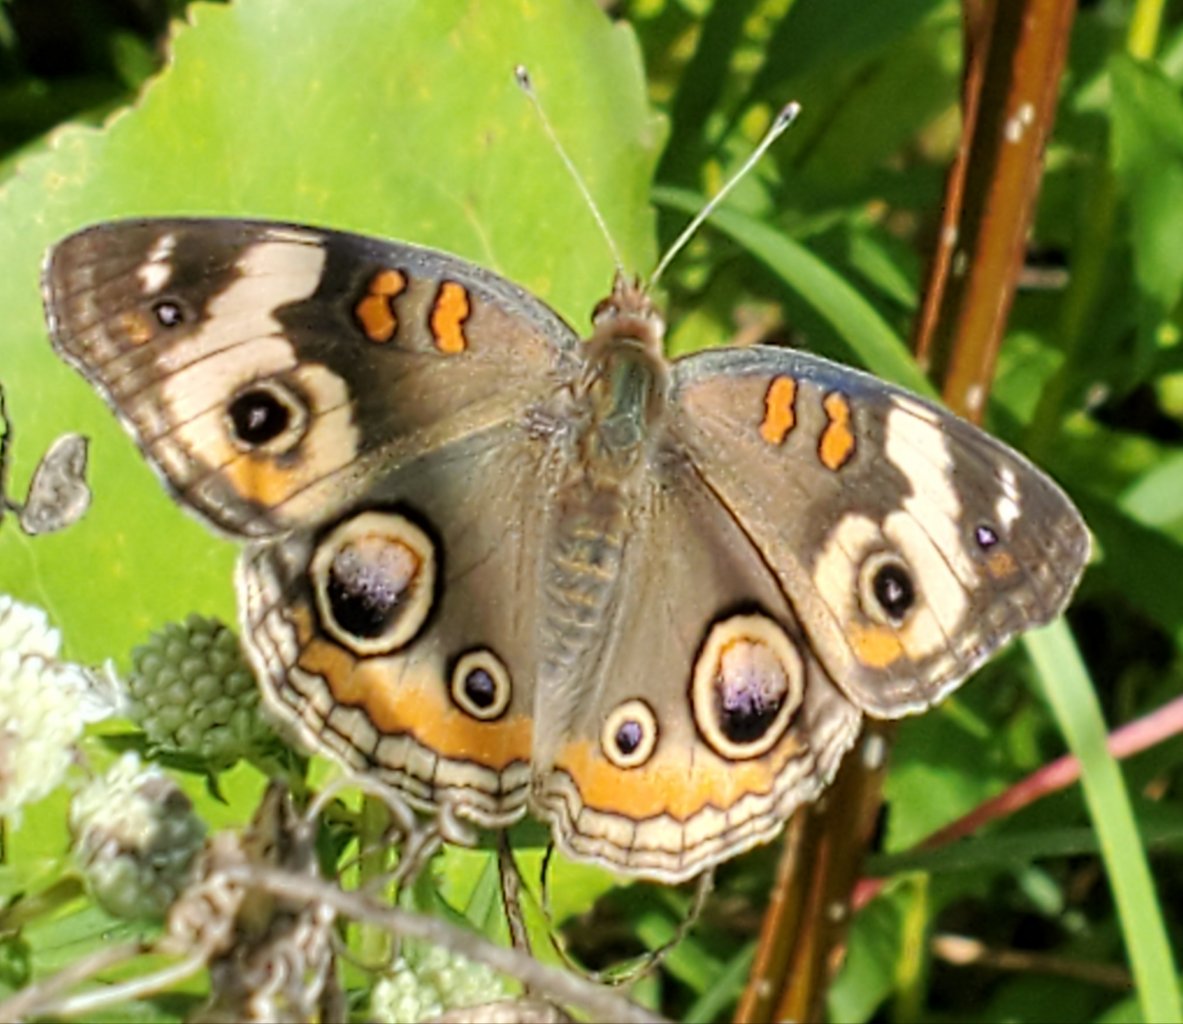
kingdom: Animalia
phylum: Arthropoda
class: Insecta
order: Lepidoptera
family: Nymphalidae
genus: Junonia
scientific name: Junonia coenia
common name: Common Buckeye
